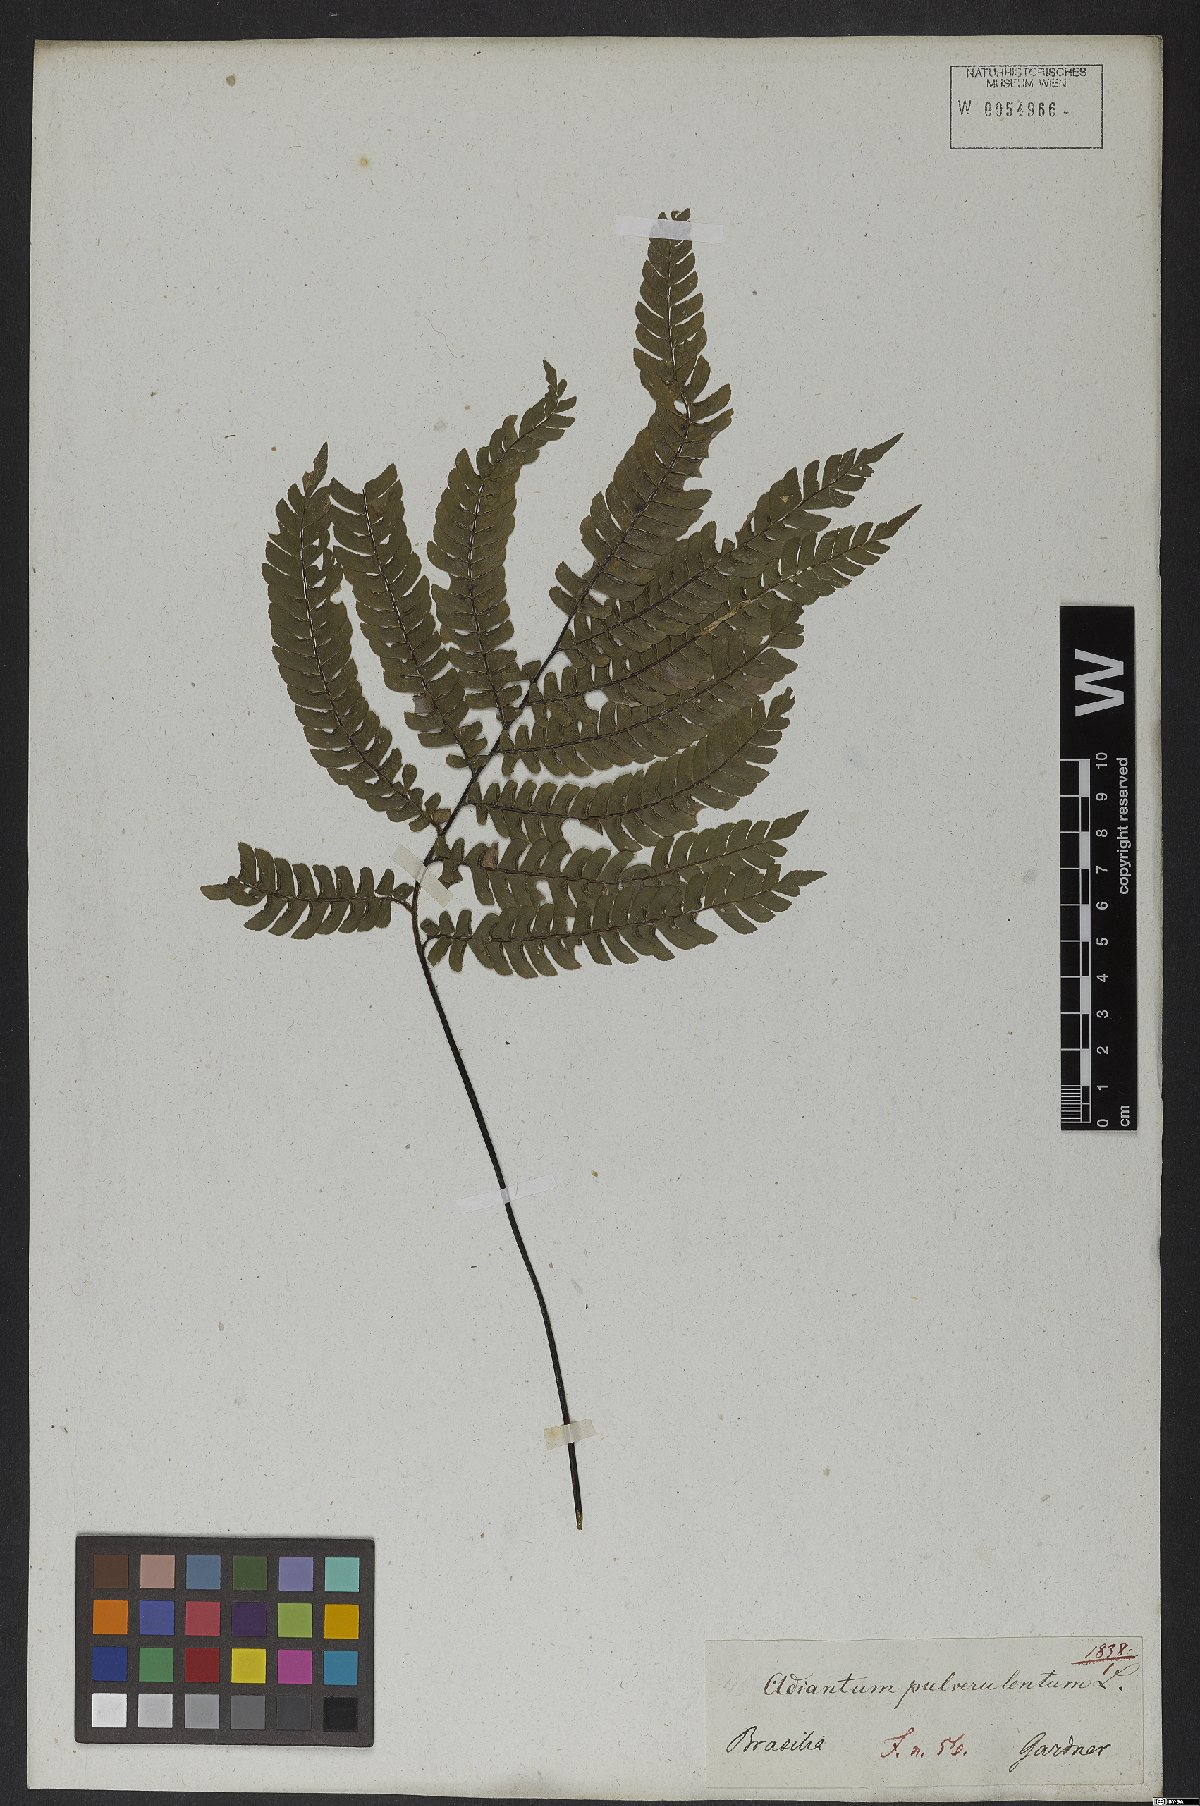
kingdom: Plantae
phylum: Tracheophyta
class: Polypodiopsida
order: Polypodiales
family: Pteridaceae
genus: Adiantum
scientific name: Adiantum pulverulentum
